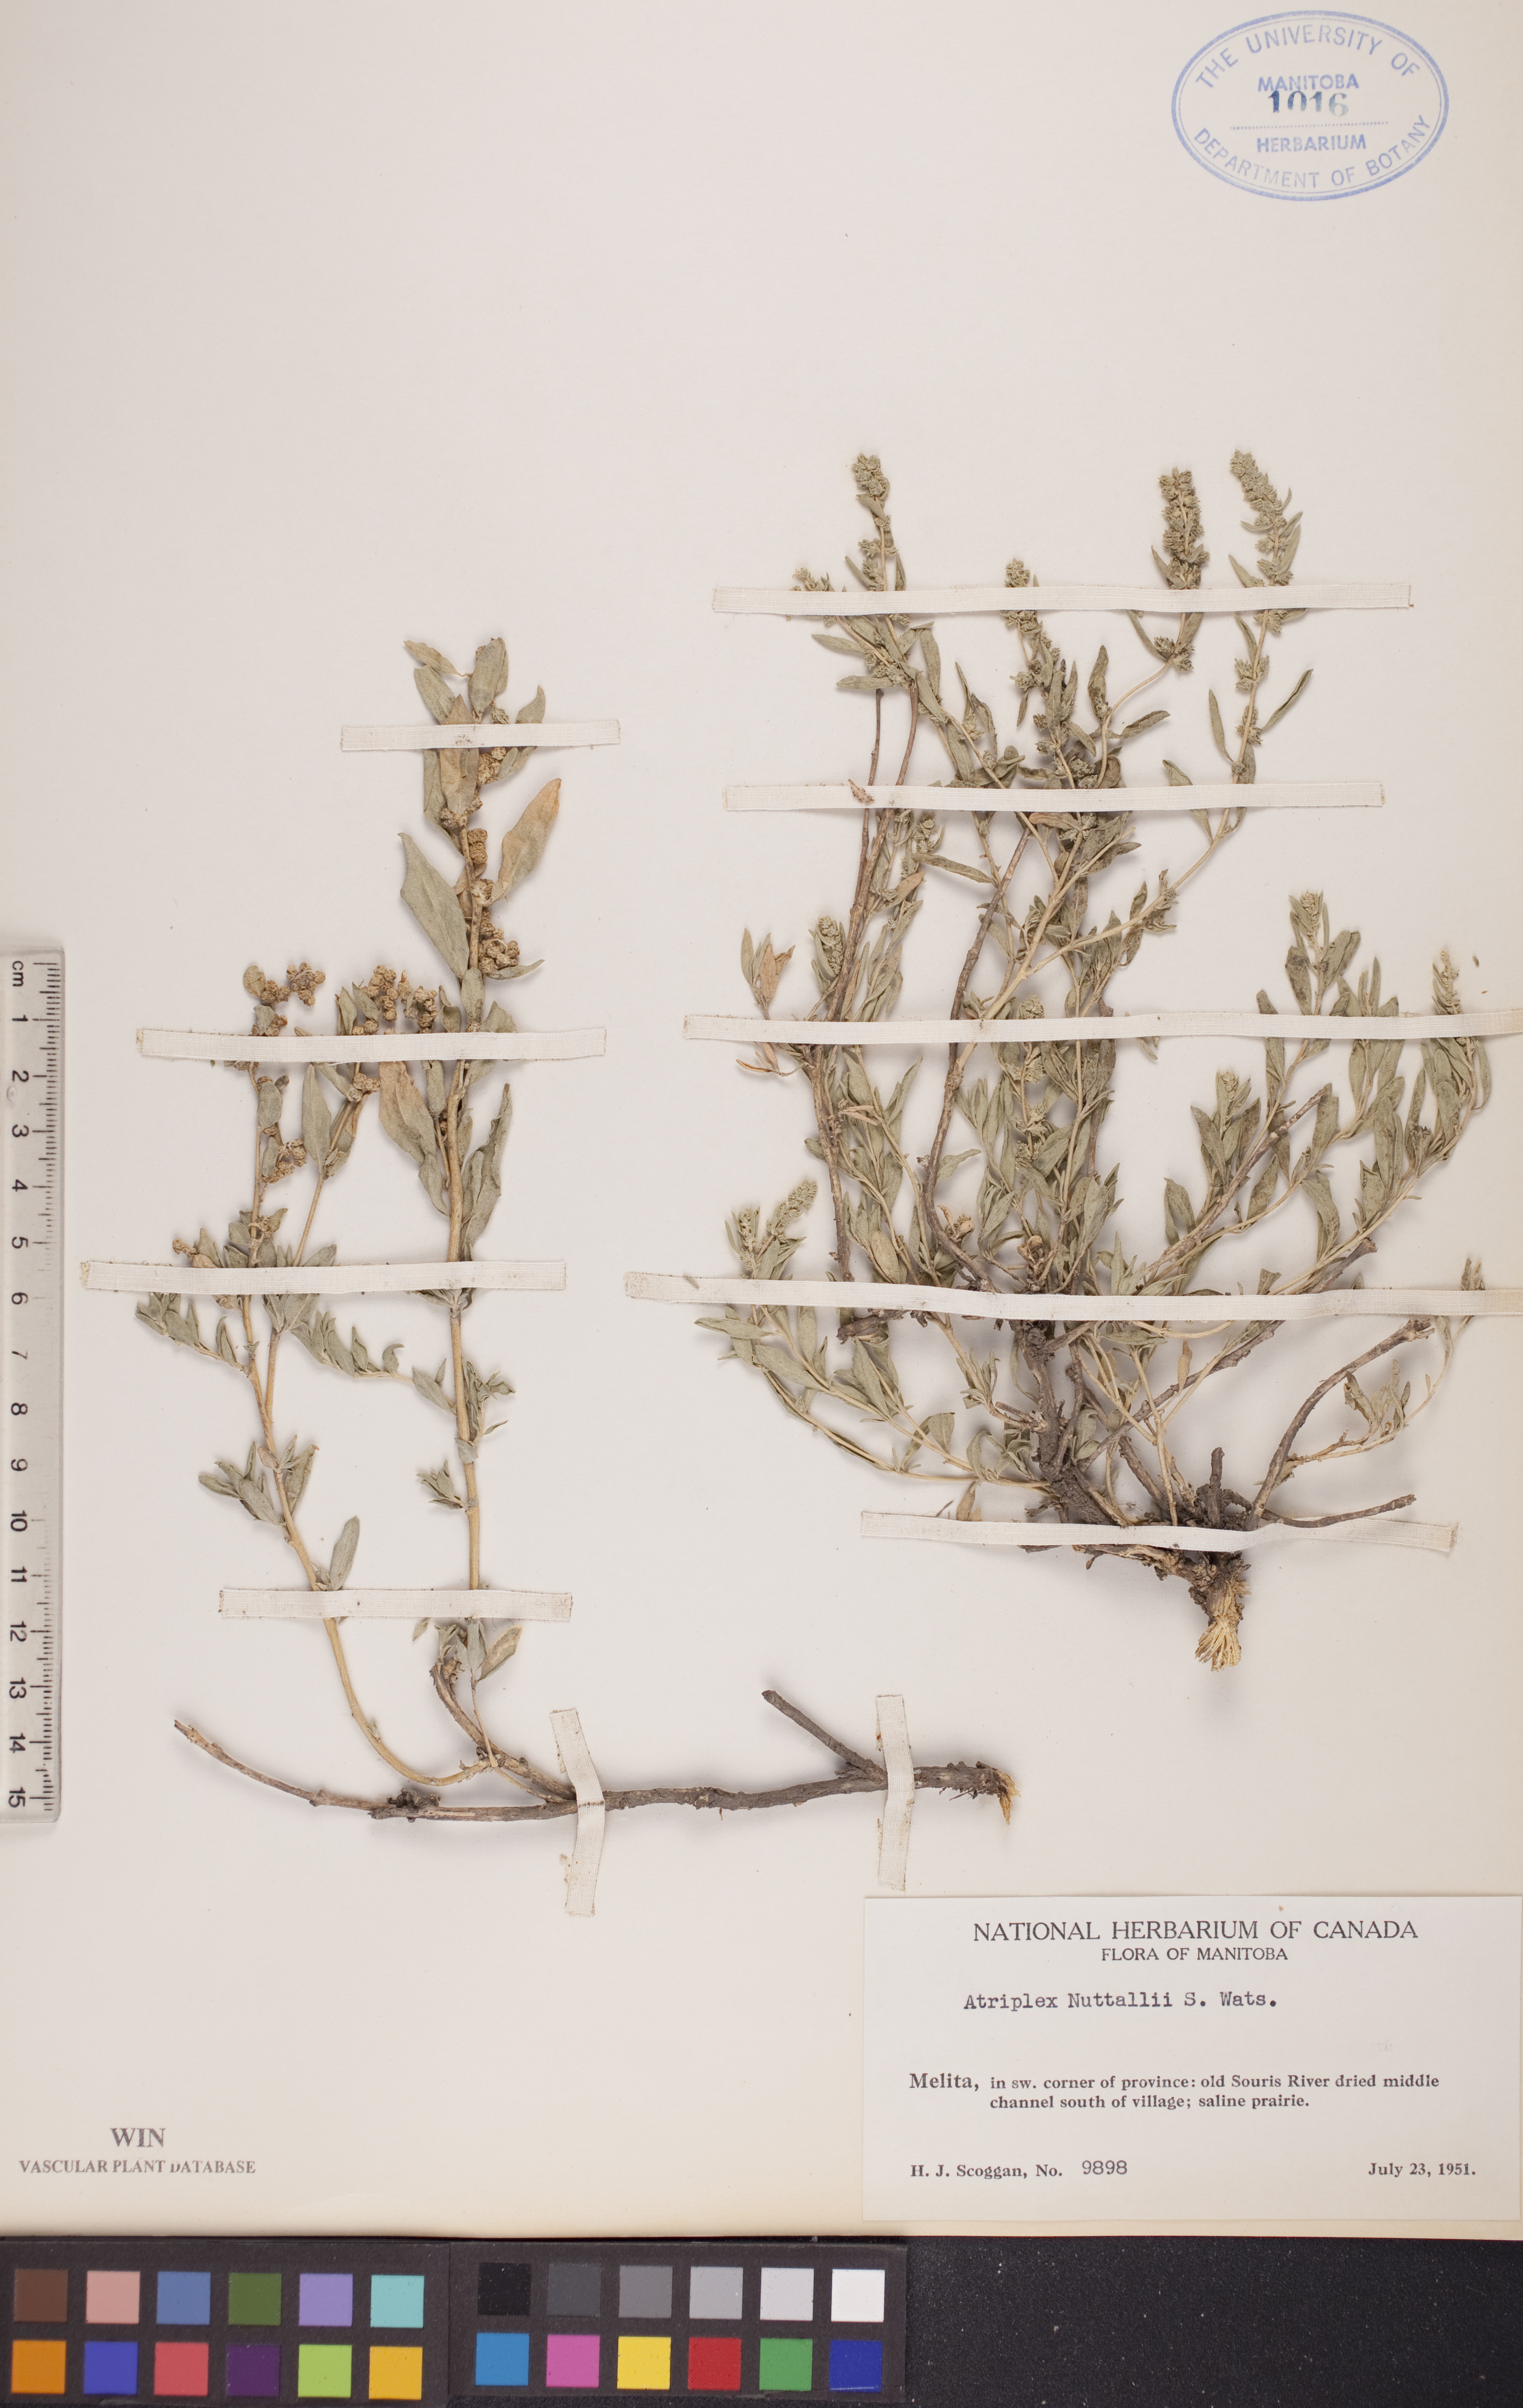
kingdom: Plantae
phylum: Tracheophyta
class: Magnoliopsida
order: Caryophyllales
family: Amaranthaceae
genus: Atriplex
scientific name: Atriplex canescens
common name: Four-wing saltbush
